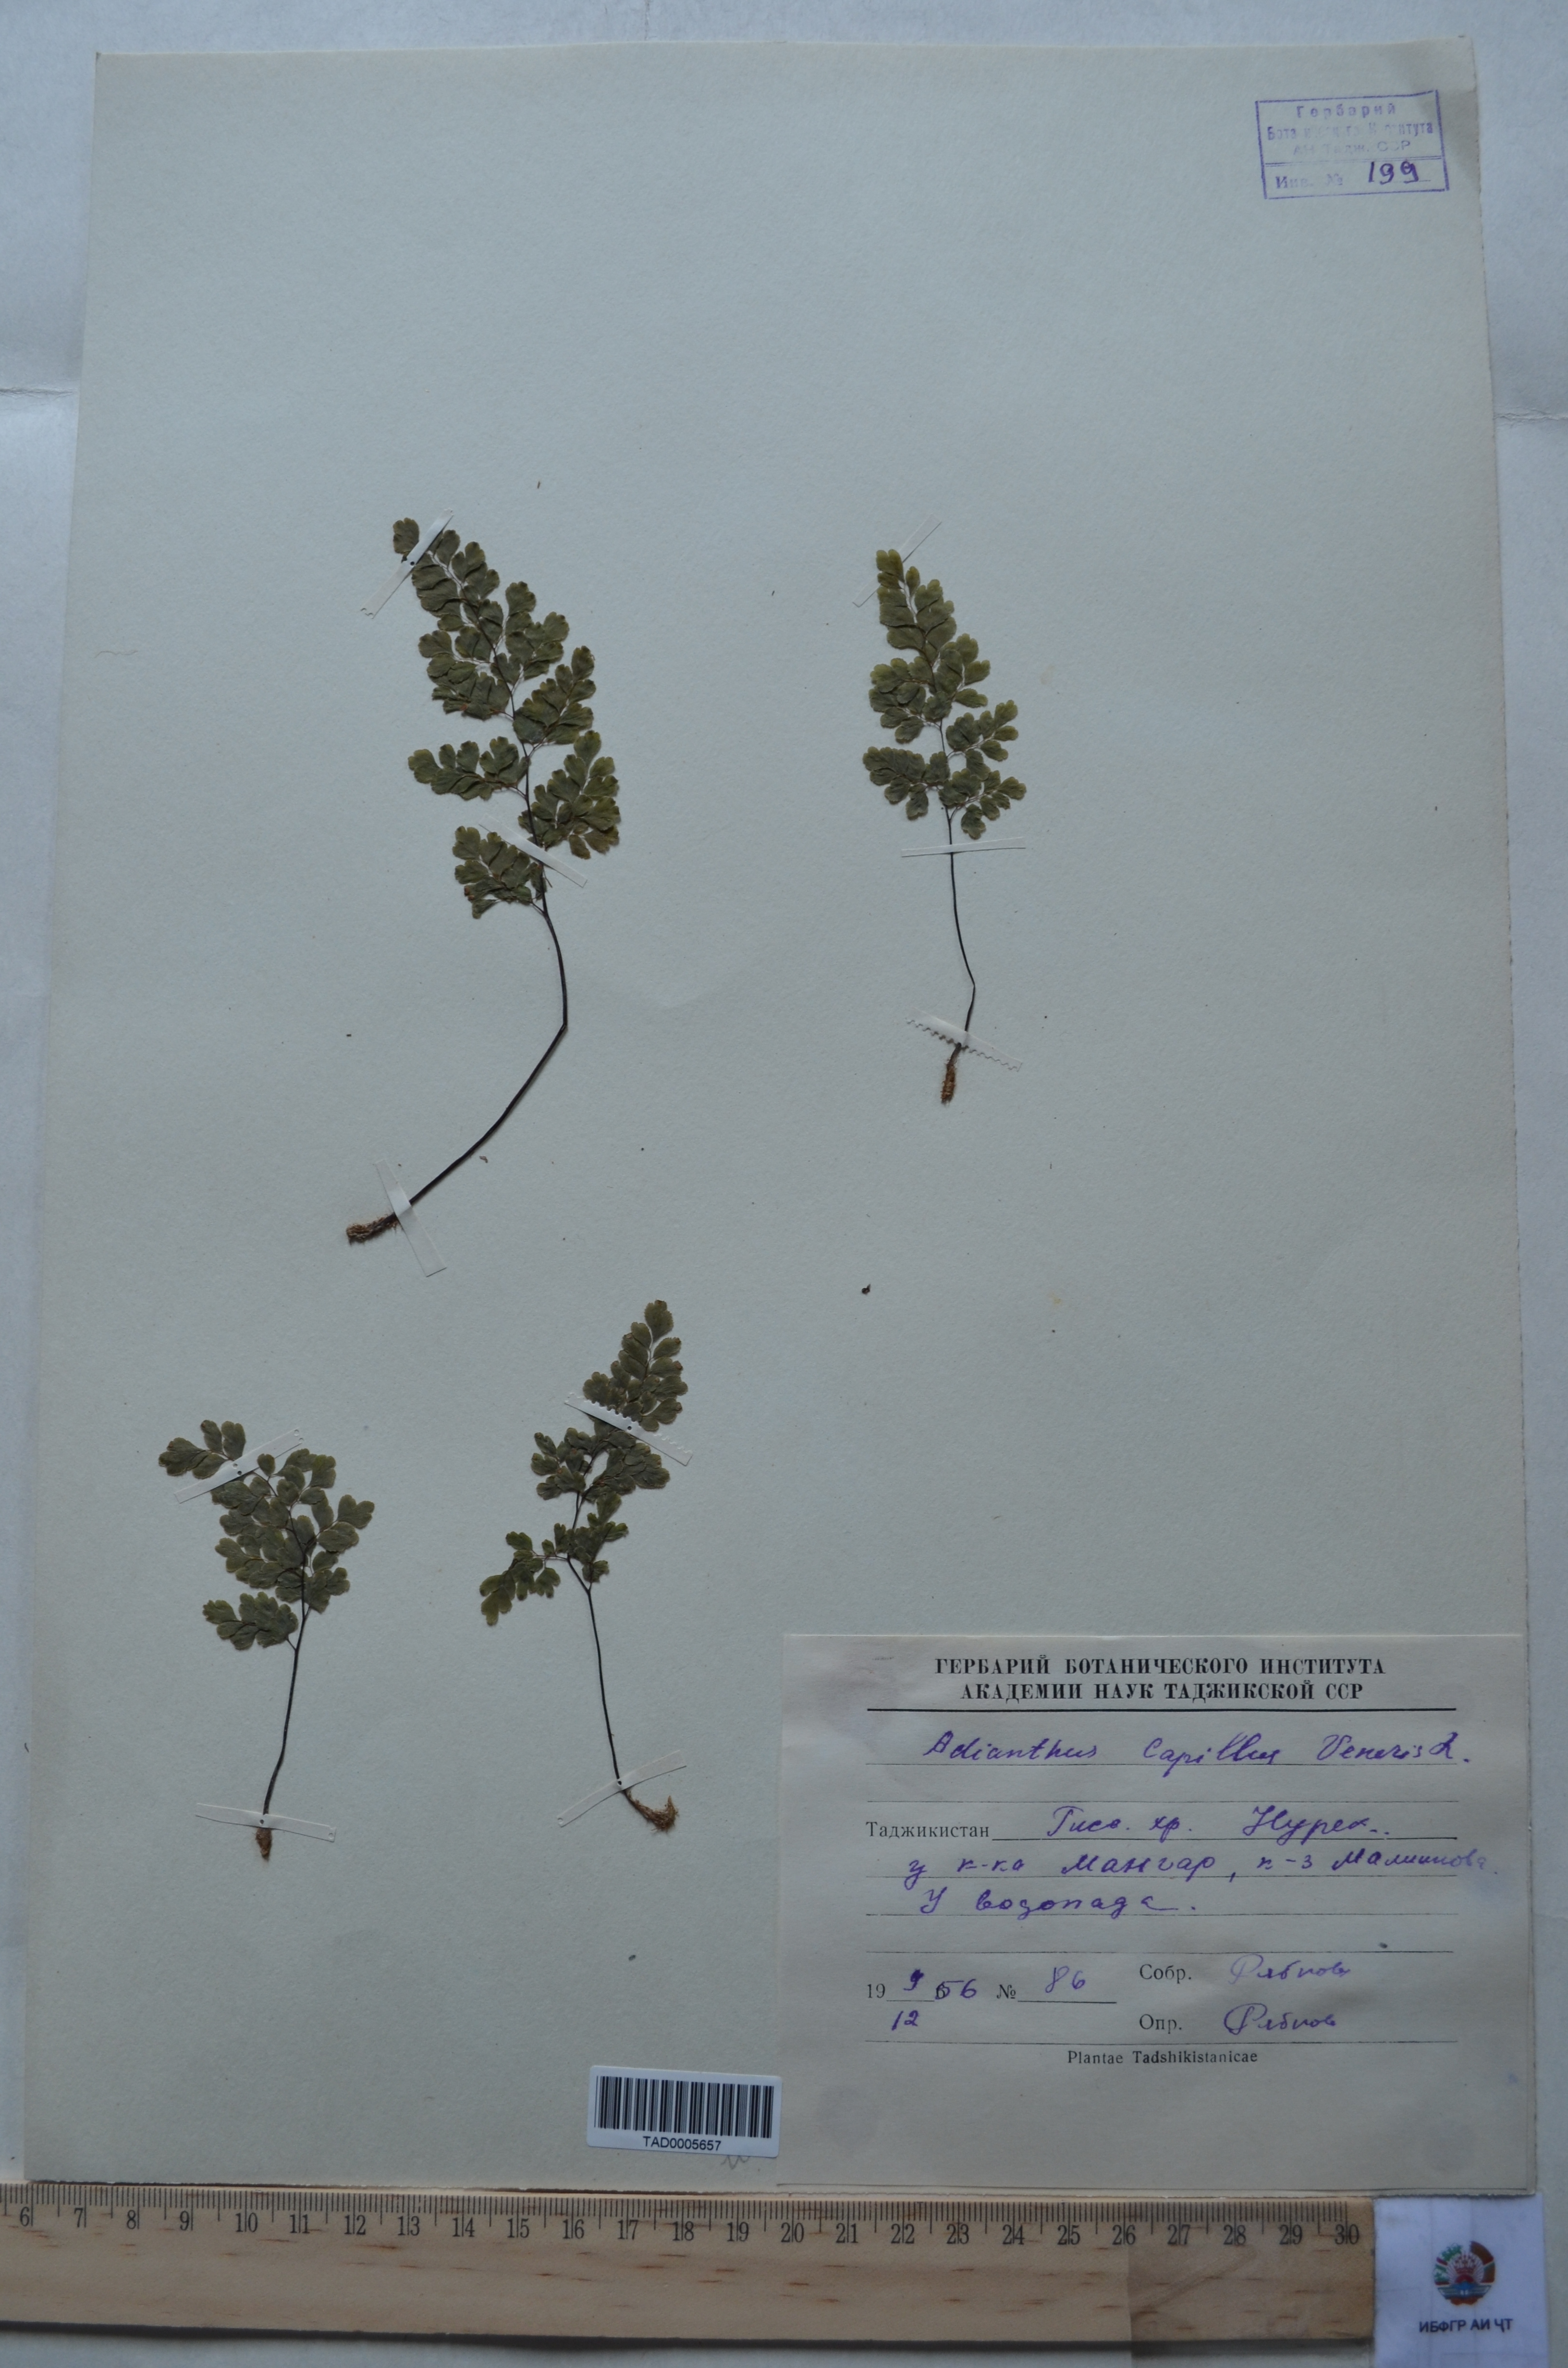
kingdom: Plantae
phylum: Tracheophyta
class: Polypodiopsida
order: Polypodiales
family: Pteridaceae
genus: Adiantum
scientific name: Adiantum capillus-veneris
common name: Maidenhair fern
